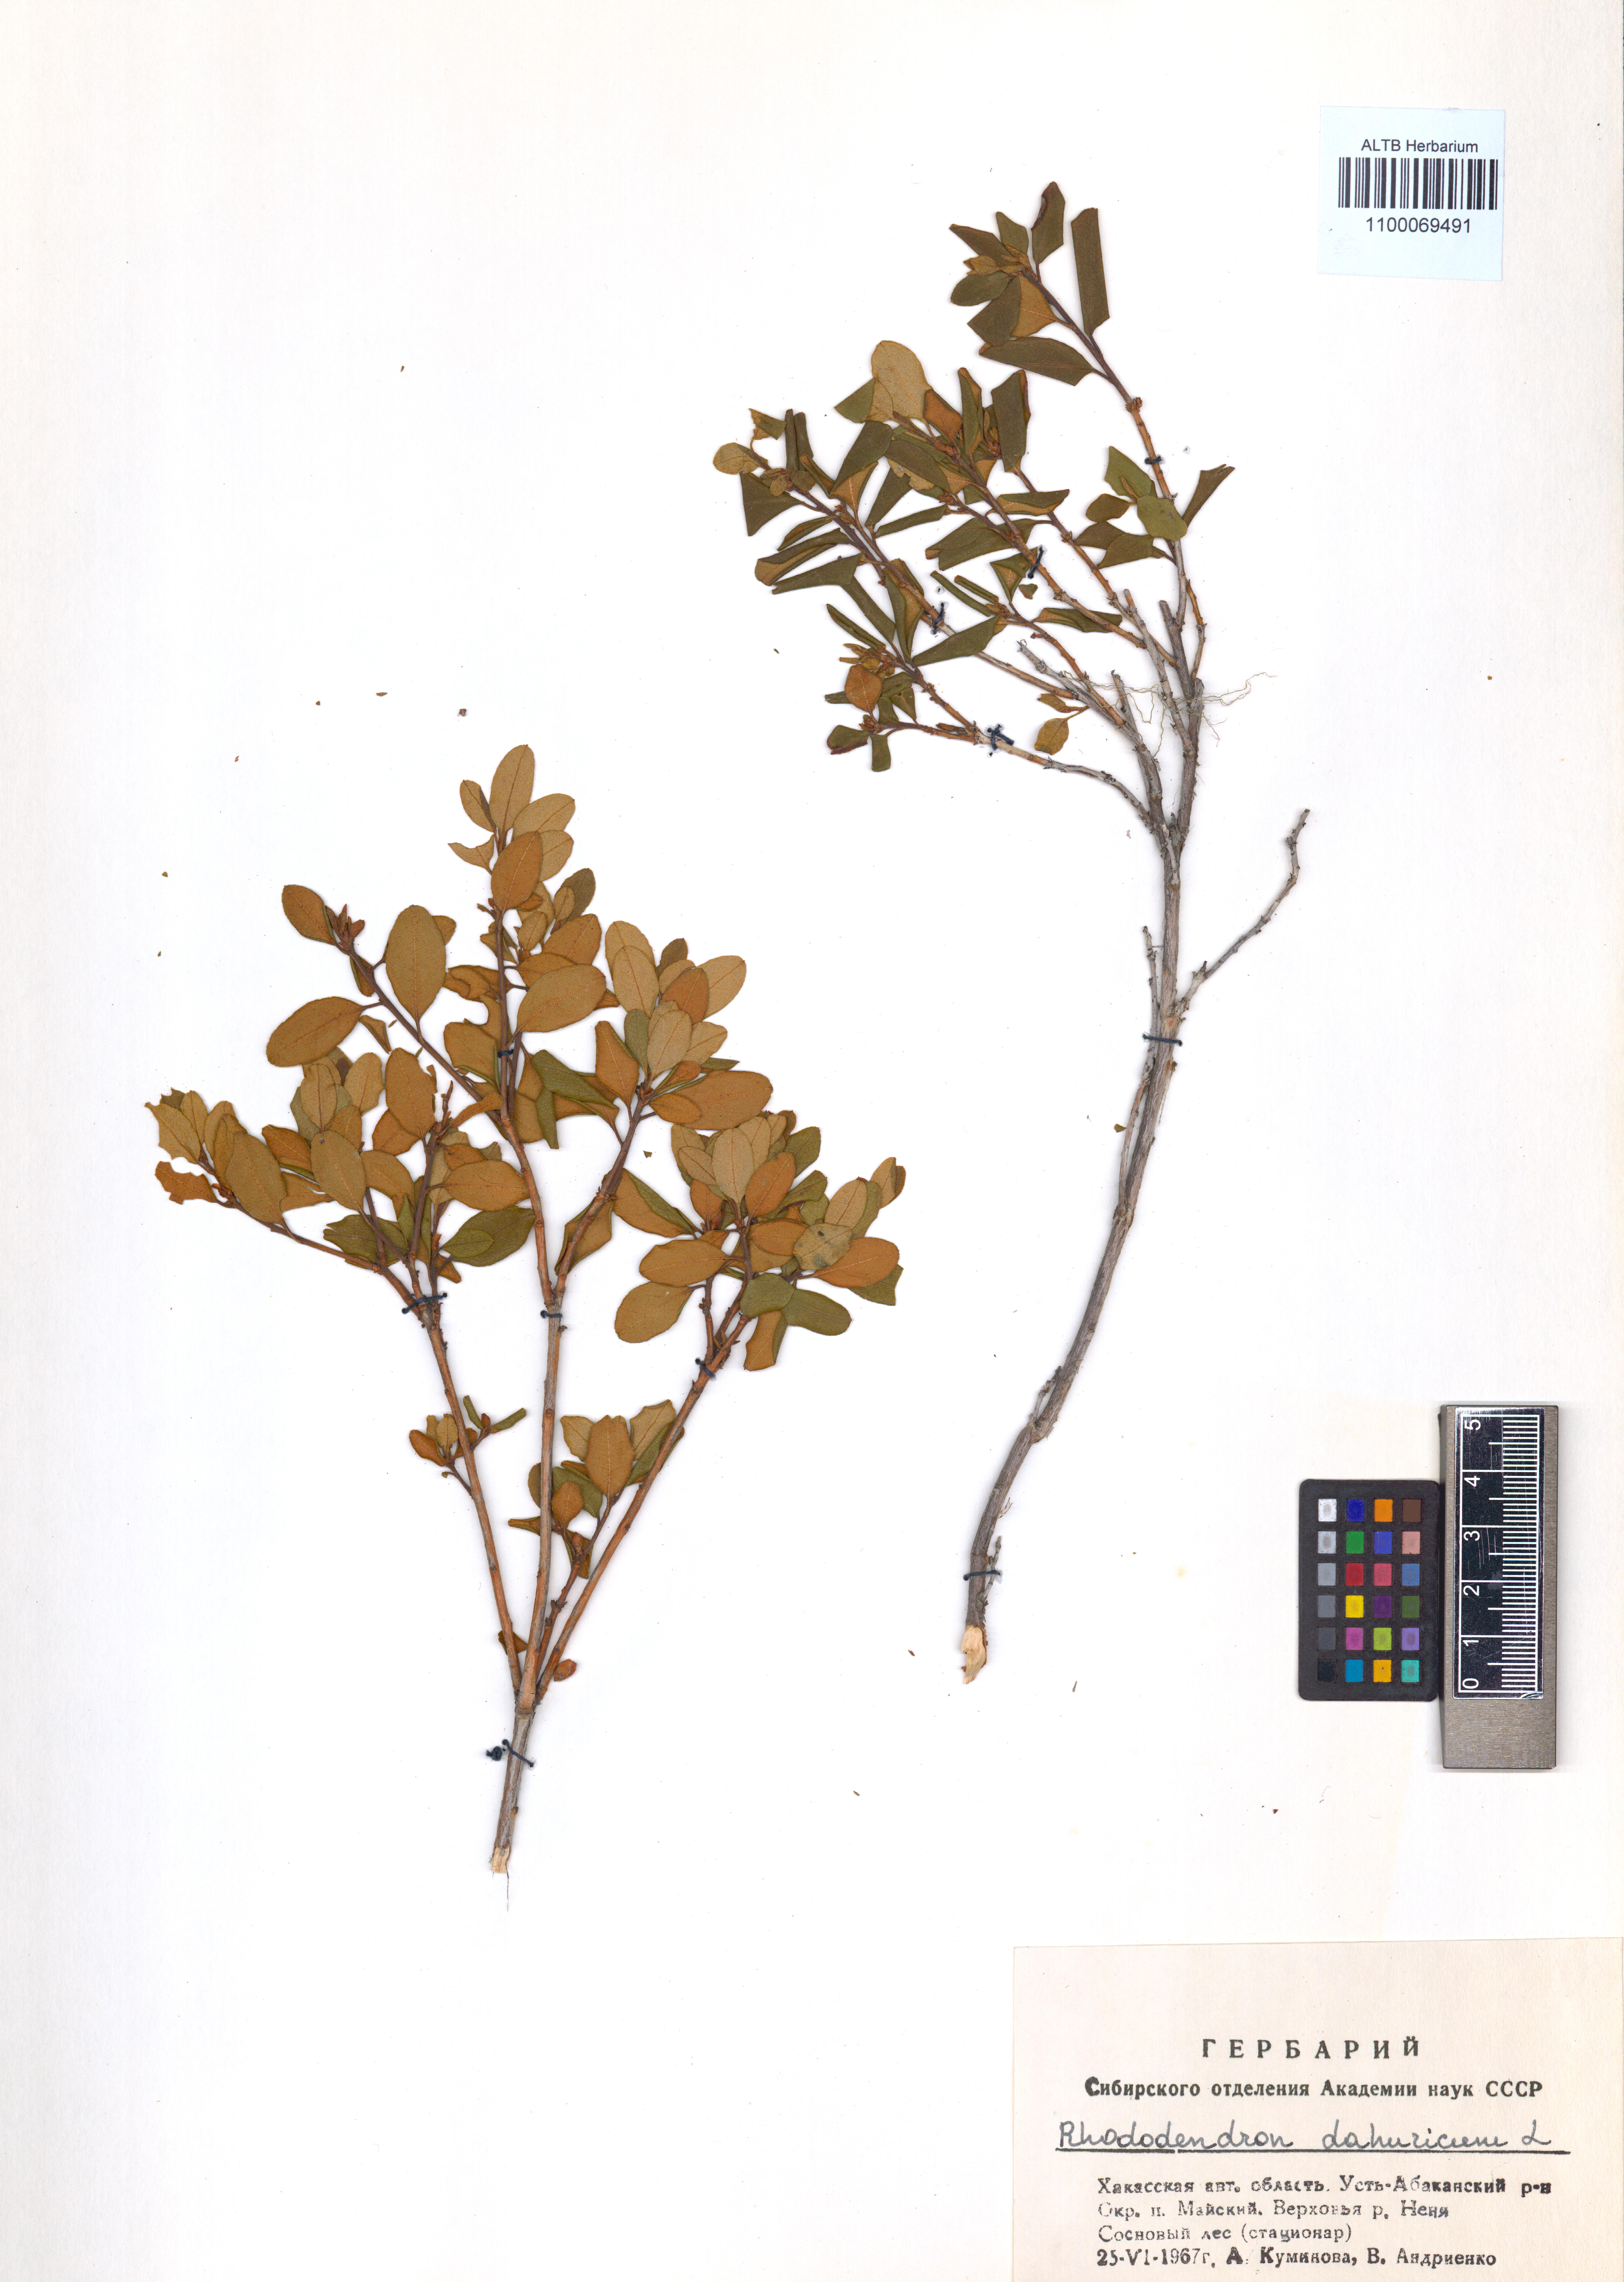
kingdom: Plantae
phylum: Tracheophyta
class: Magnoliopsida
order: Ericales
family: Ericaceae
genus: Rhododendron
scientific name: Rhododendron dauricum
